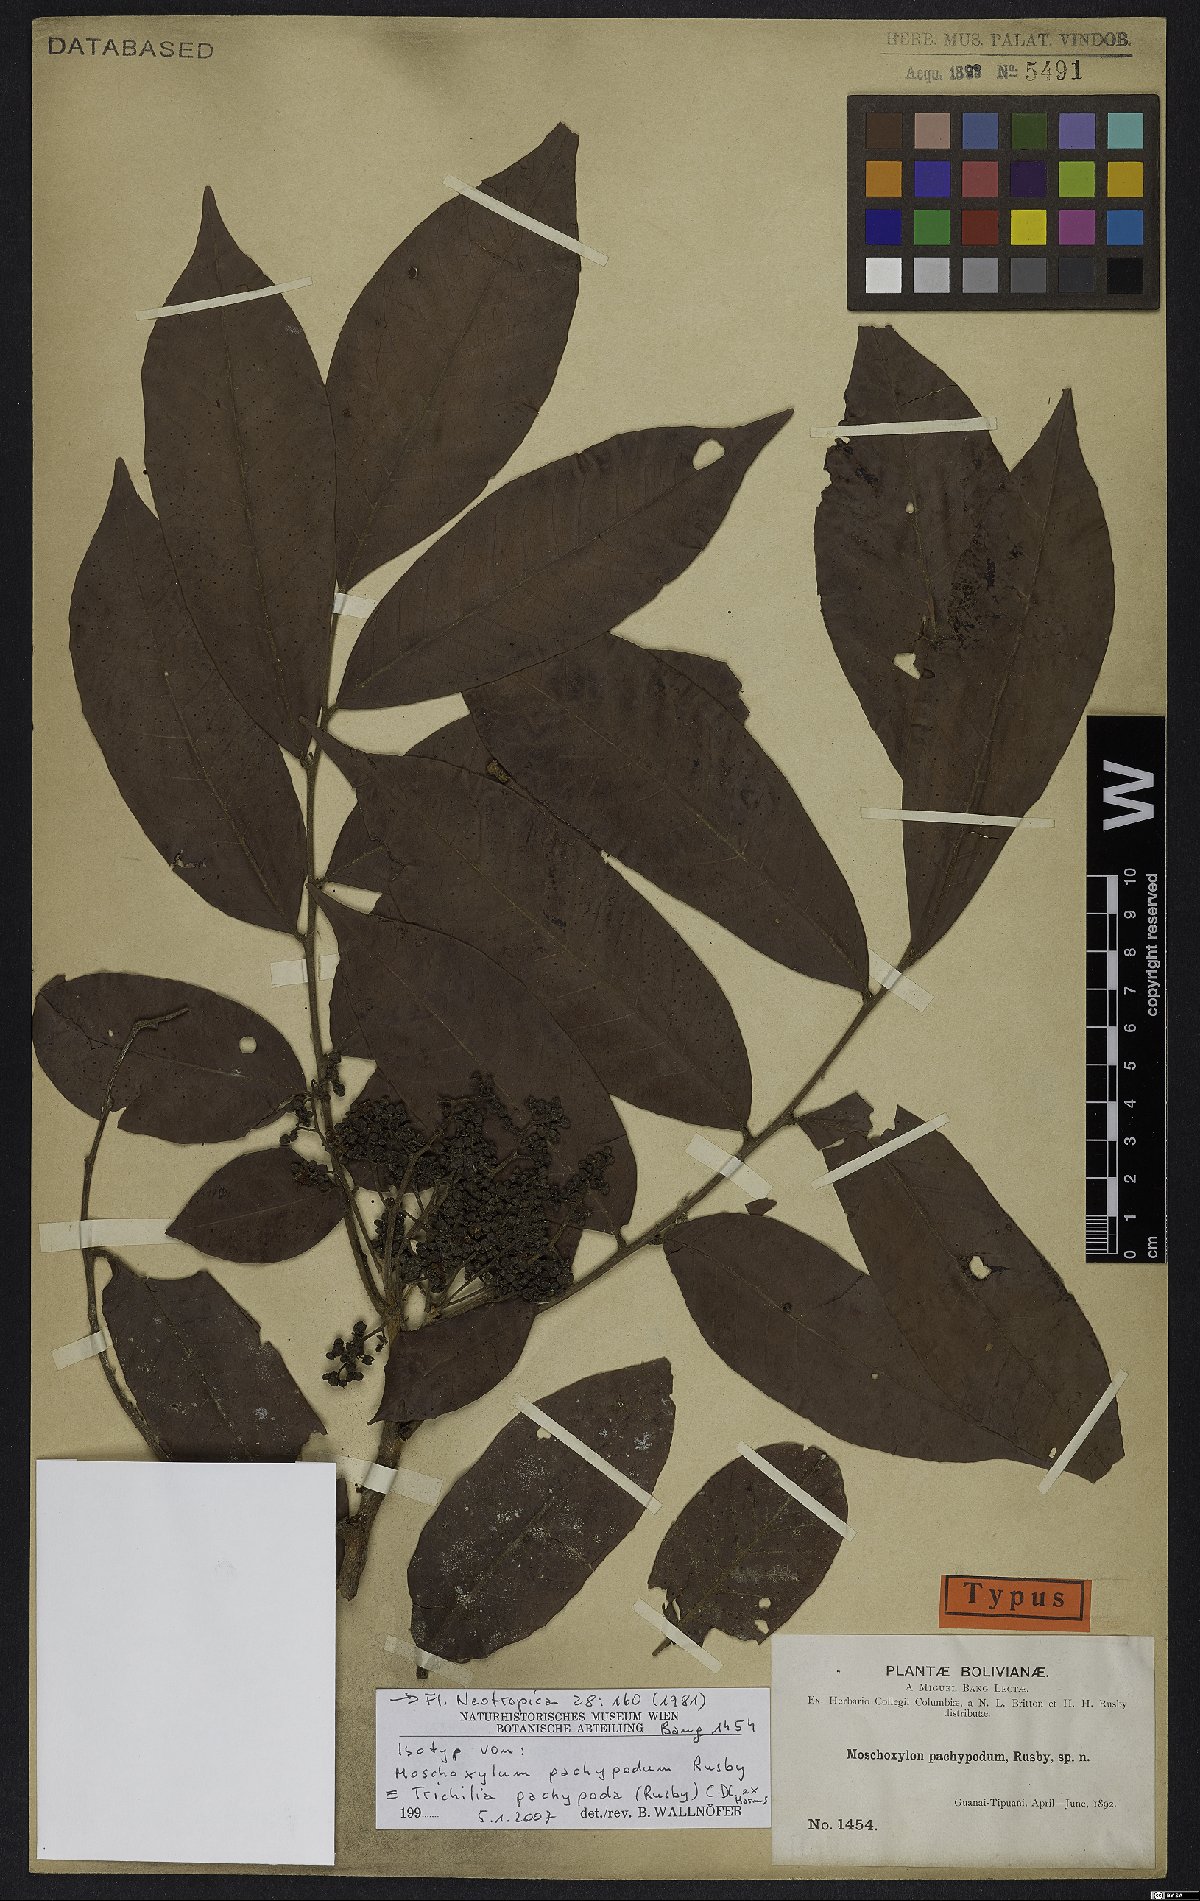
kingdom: Plantae
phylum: Tracheophyta
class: Magnoliopsida
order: Sapindales
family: Meliaceae
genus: Trichilia
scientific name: Trichilia pachypoda
